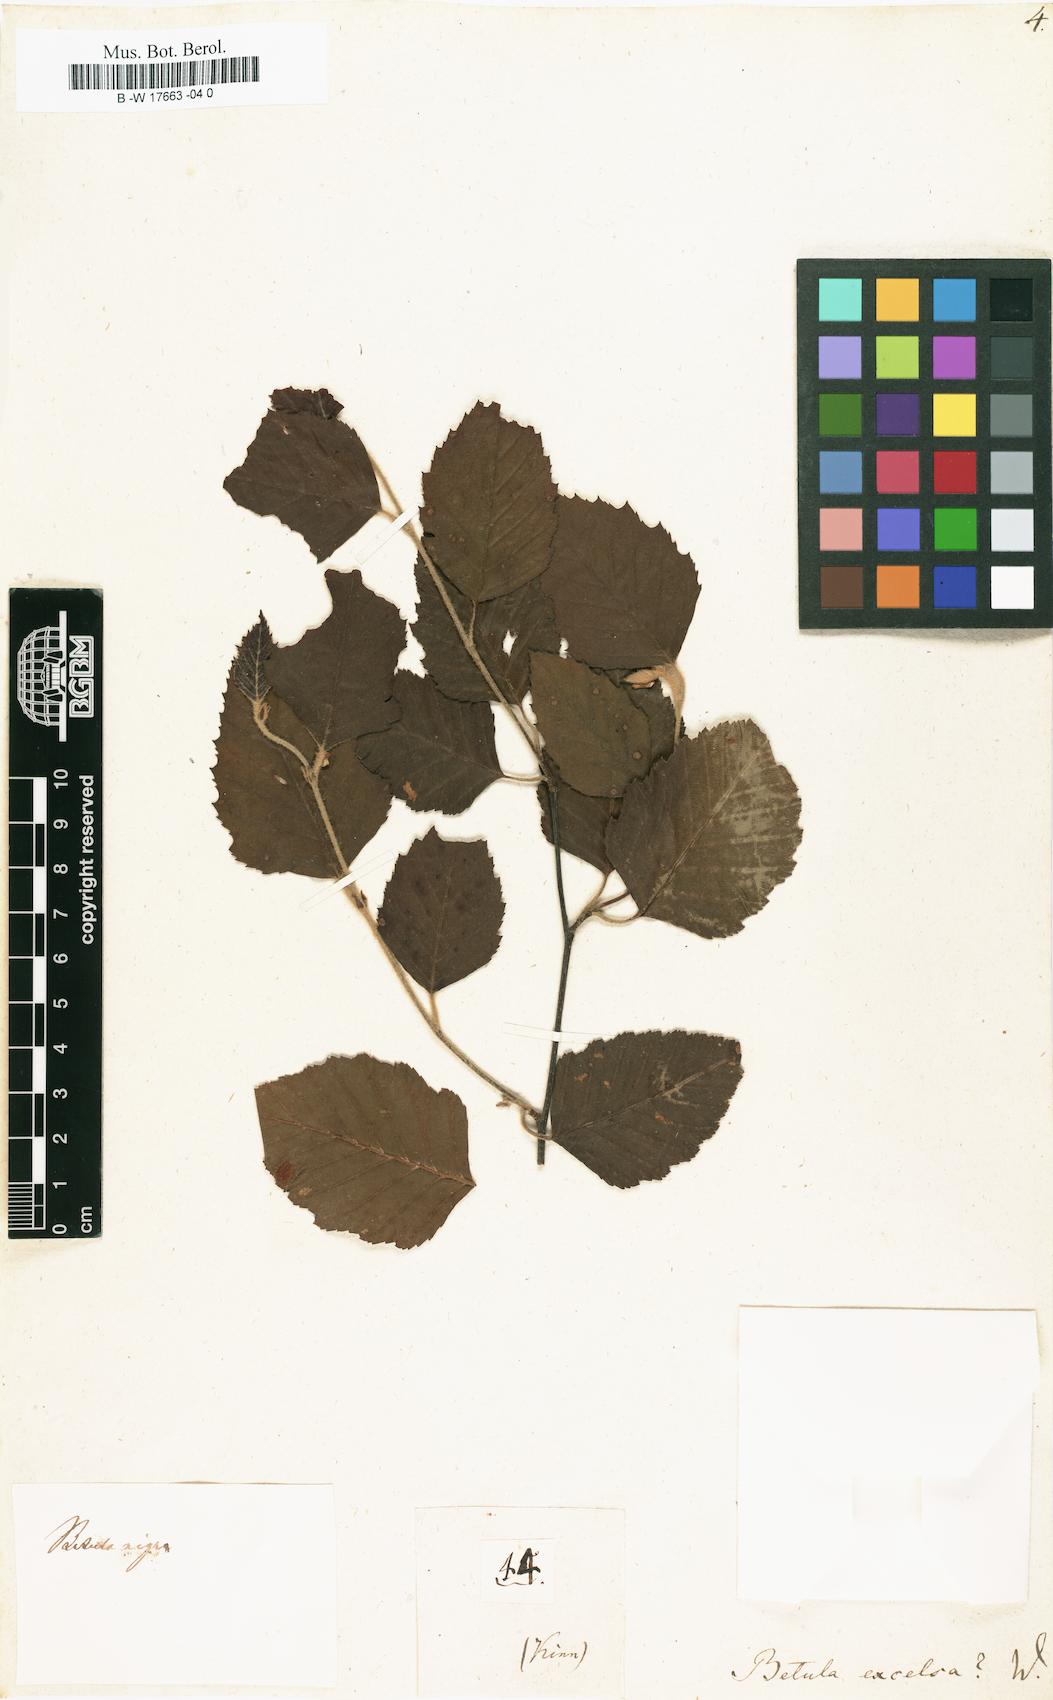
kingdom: Plantae
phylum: Tracheophyta
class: Magnoliopsida
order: Fagales
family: Betulaceae
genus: Betula
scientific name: Betula papyrifera
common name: Paper birch
